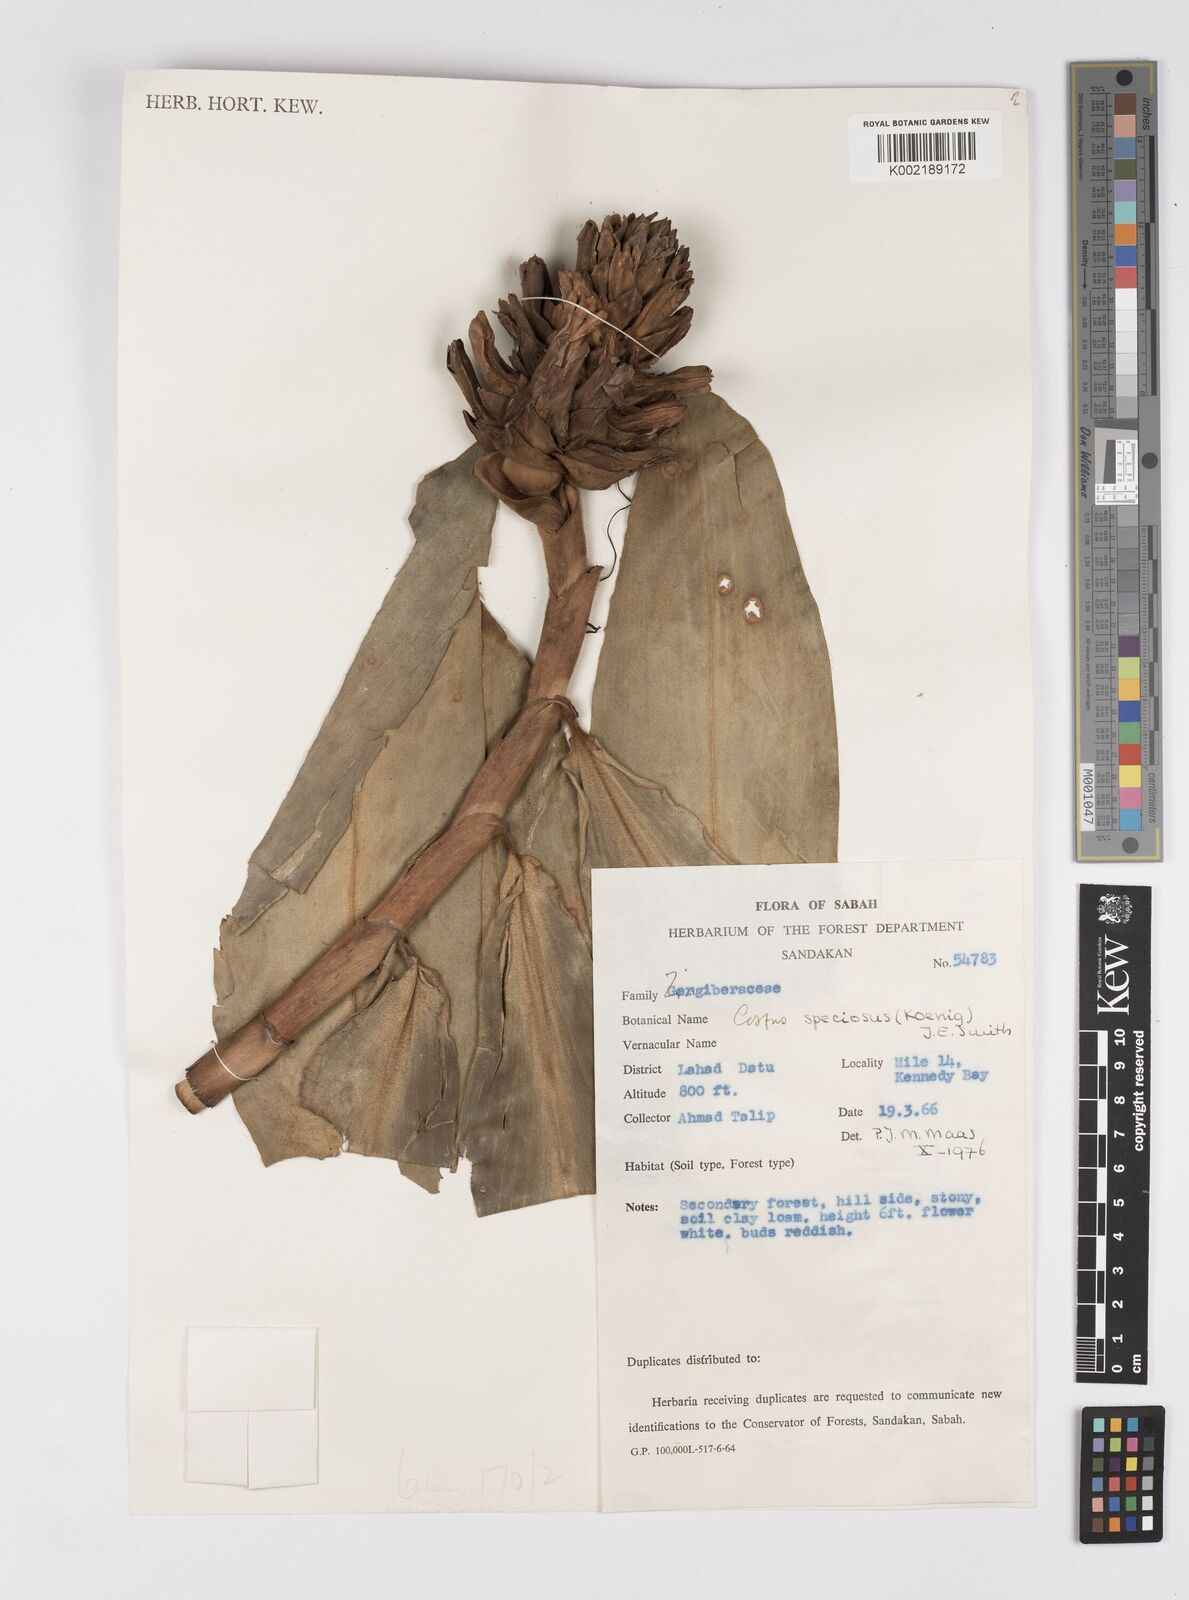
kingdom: Plantae
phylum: Tracheophyta
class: Liliopsida
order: Zingiberales
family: Costaceae
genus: Hellenia
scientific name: Hellenia speciosa
